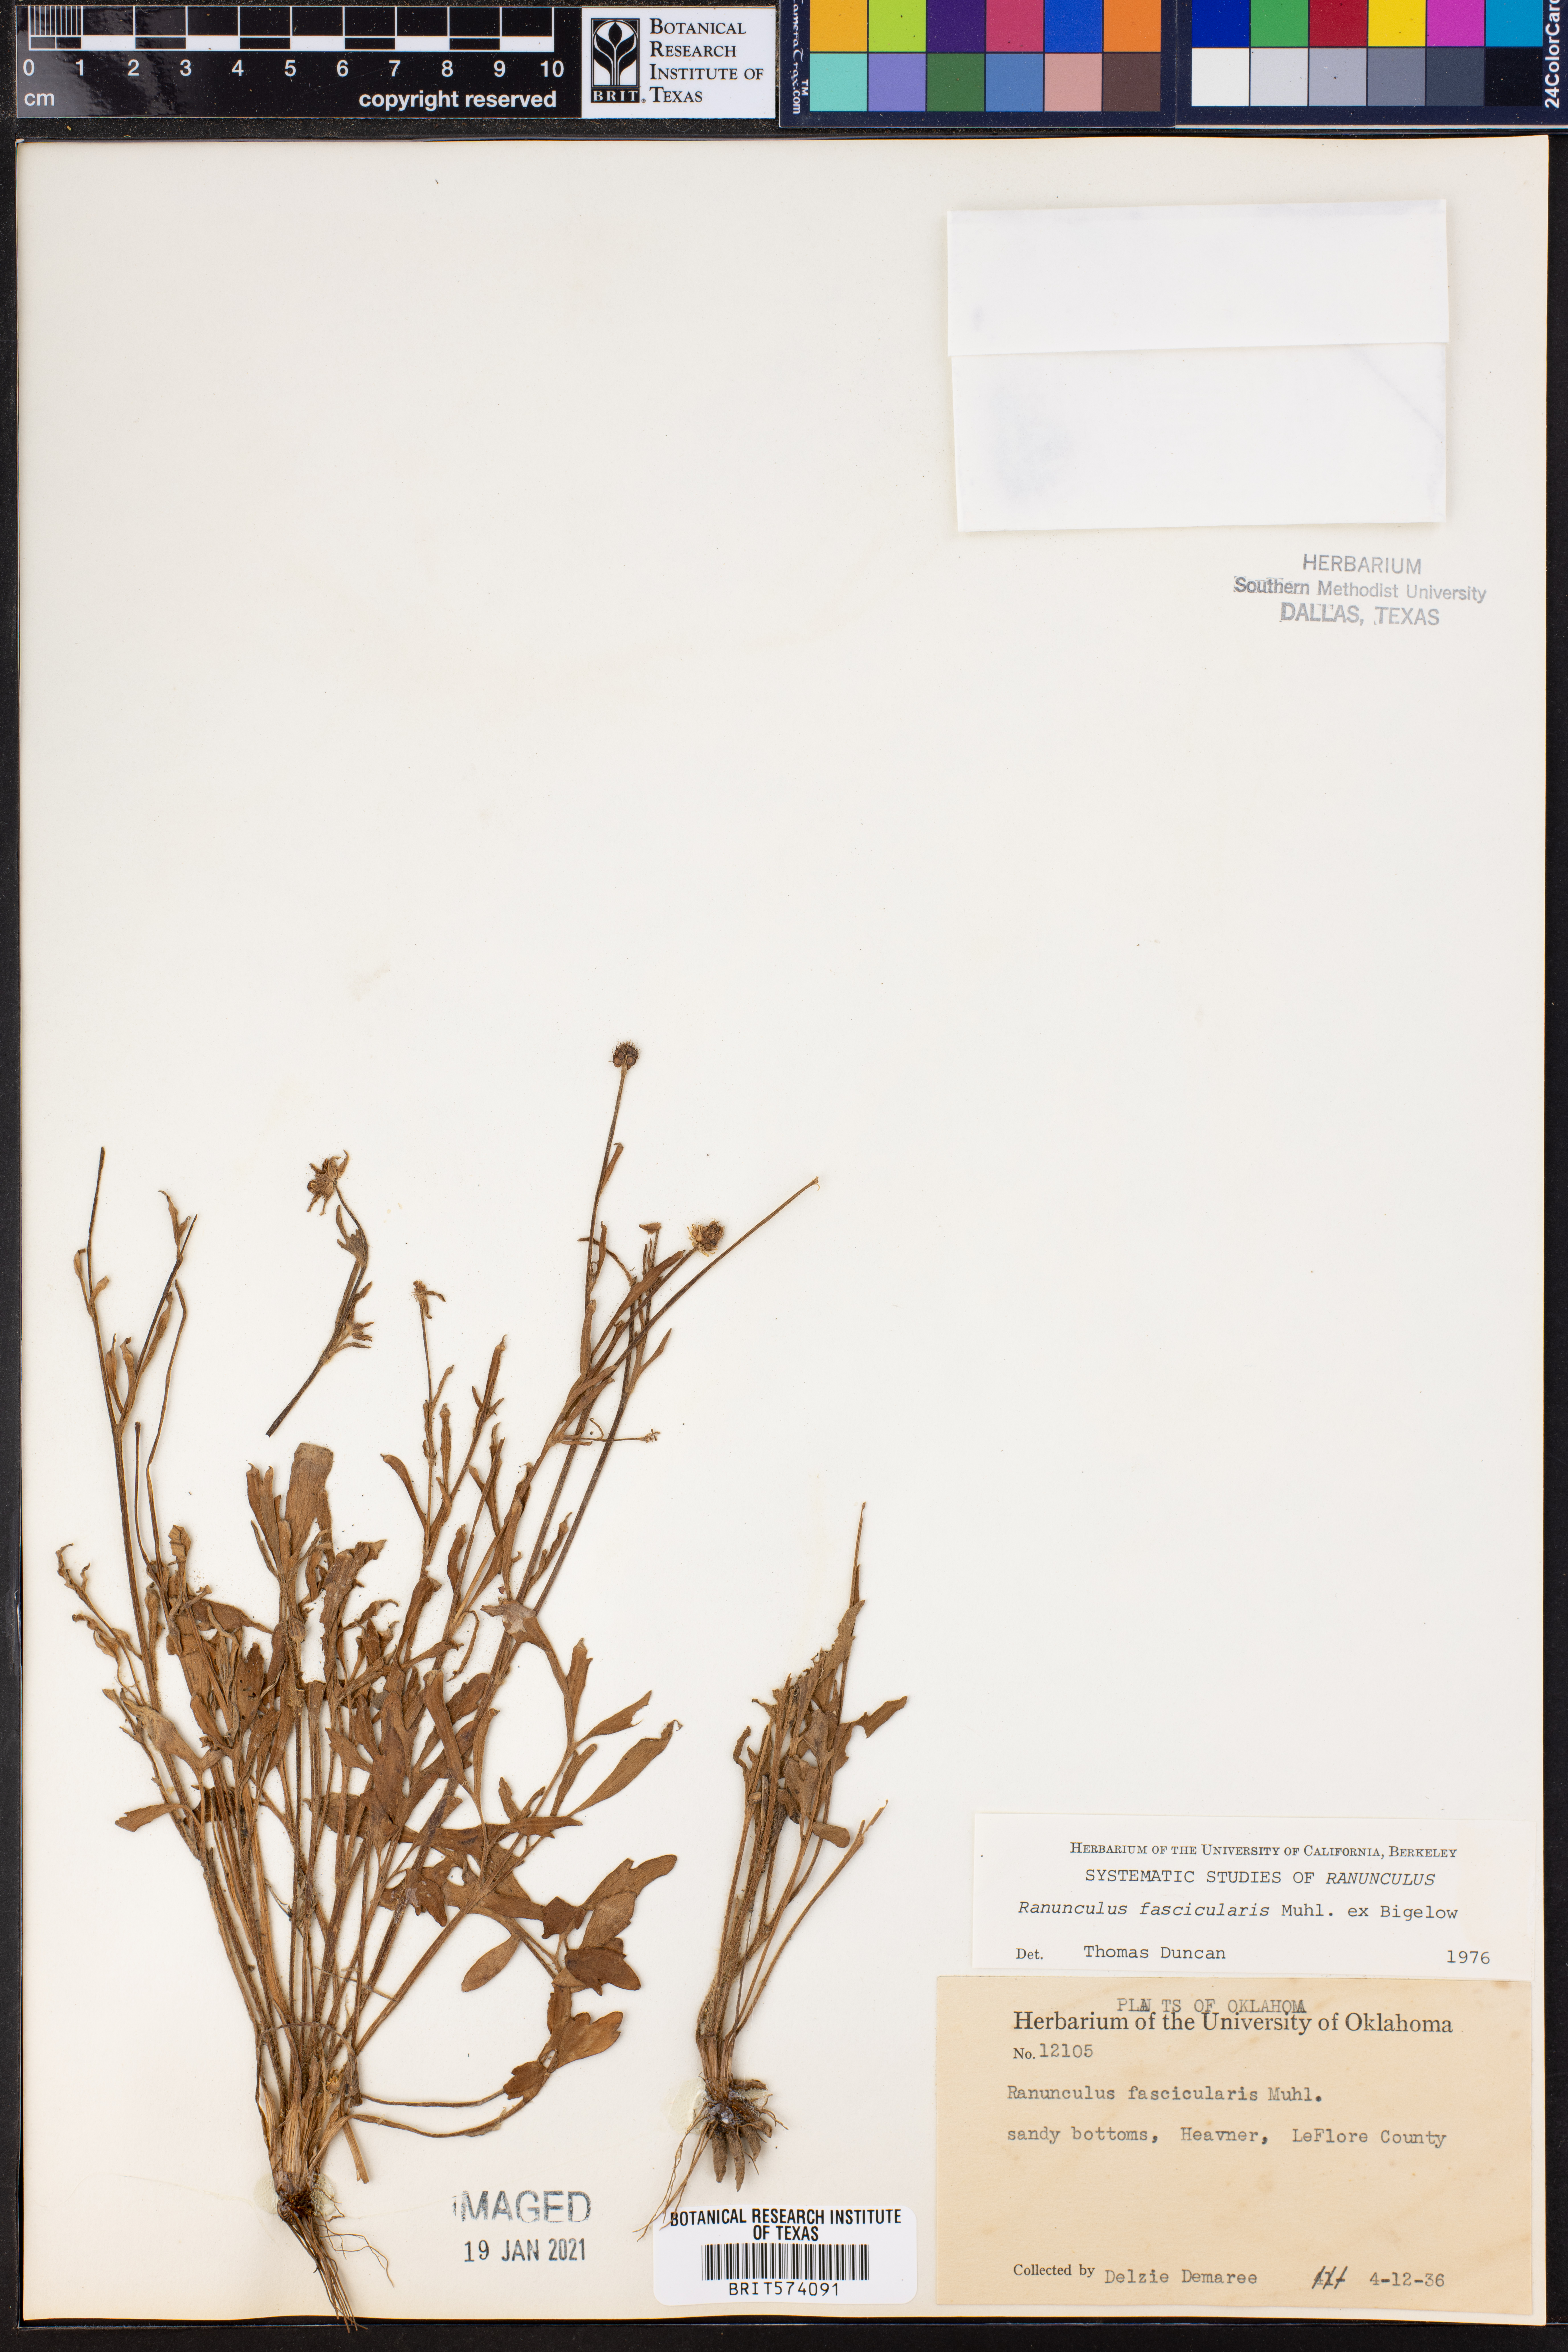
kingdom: Plantae
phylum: Tracheophyta
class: Magnoliopsida
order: Ranunculales
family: Ranunculaceae
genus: Ranunculus
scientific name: Ranunculus fascicularis
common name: Early buttercup
